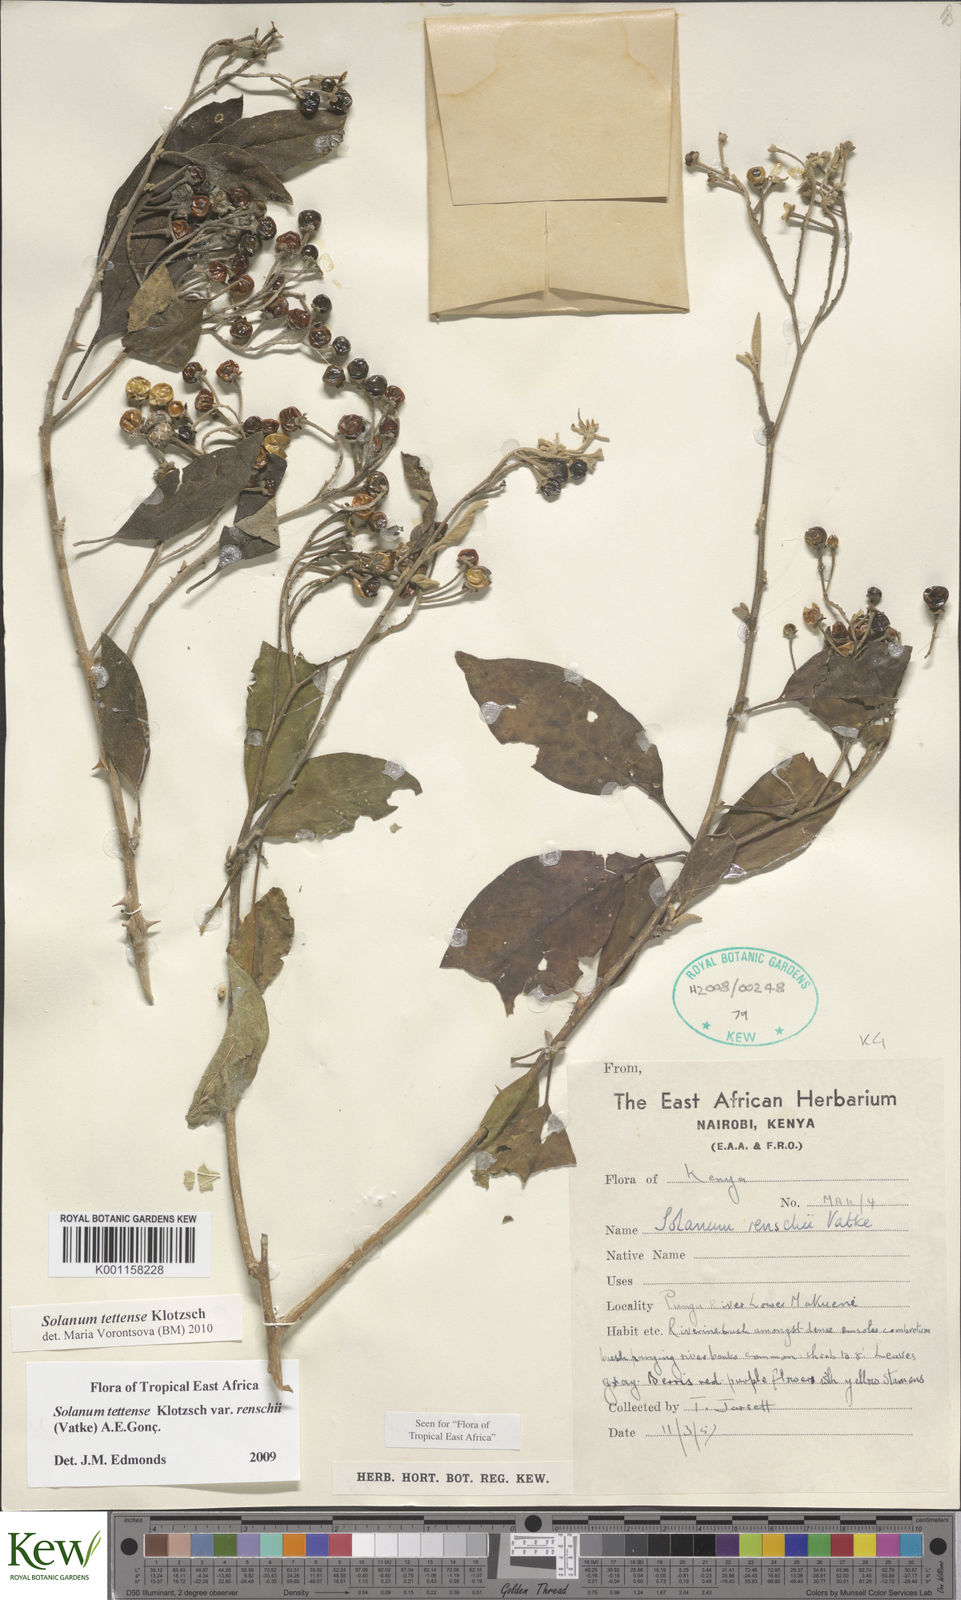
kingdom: Plantae
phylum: Tracheophyta
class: Magnoliopsida
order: Solanales
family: Solanaceae
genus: Solanum
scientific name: Solanum tettense
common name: Mozambique bitter apple
